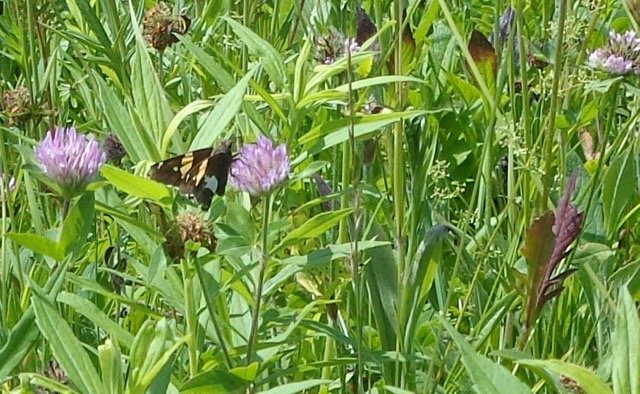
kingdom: Animalia
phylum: Arthropoda
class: Insecta
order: Lepidoptera
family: Hesperiidae
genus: Epargyreus
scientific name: Epargyreus clarus
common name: Silver-spotted Skipper
